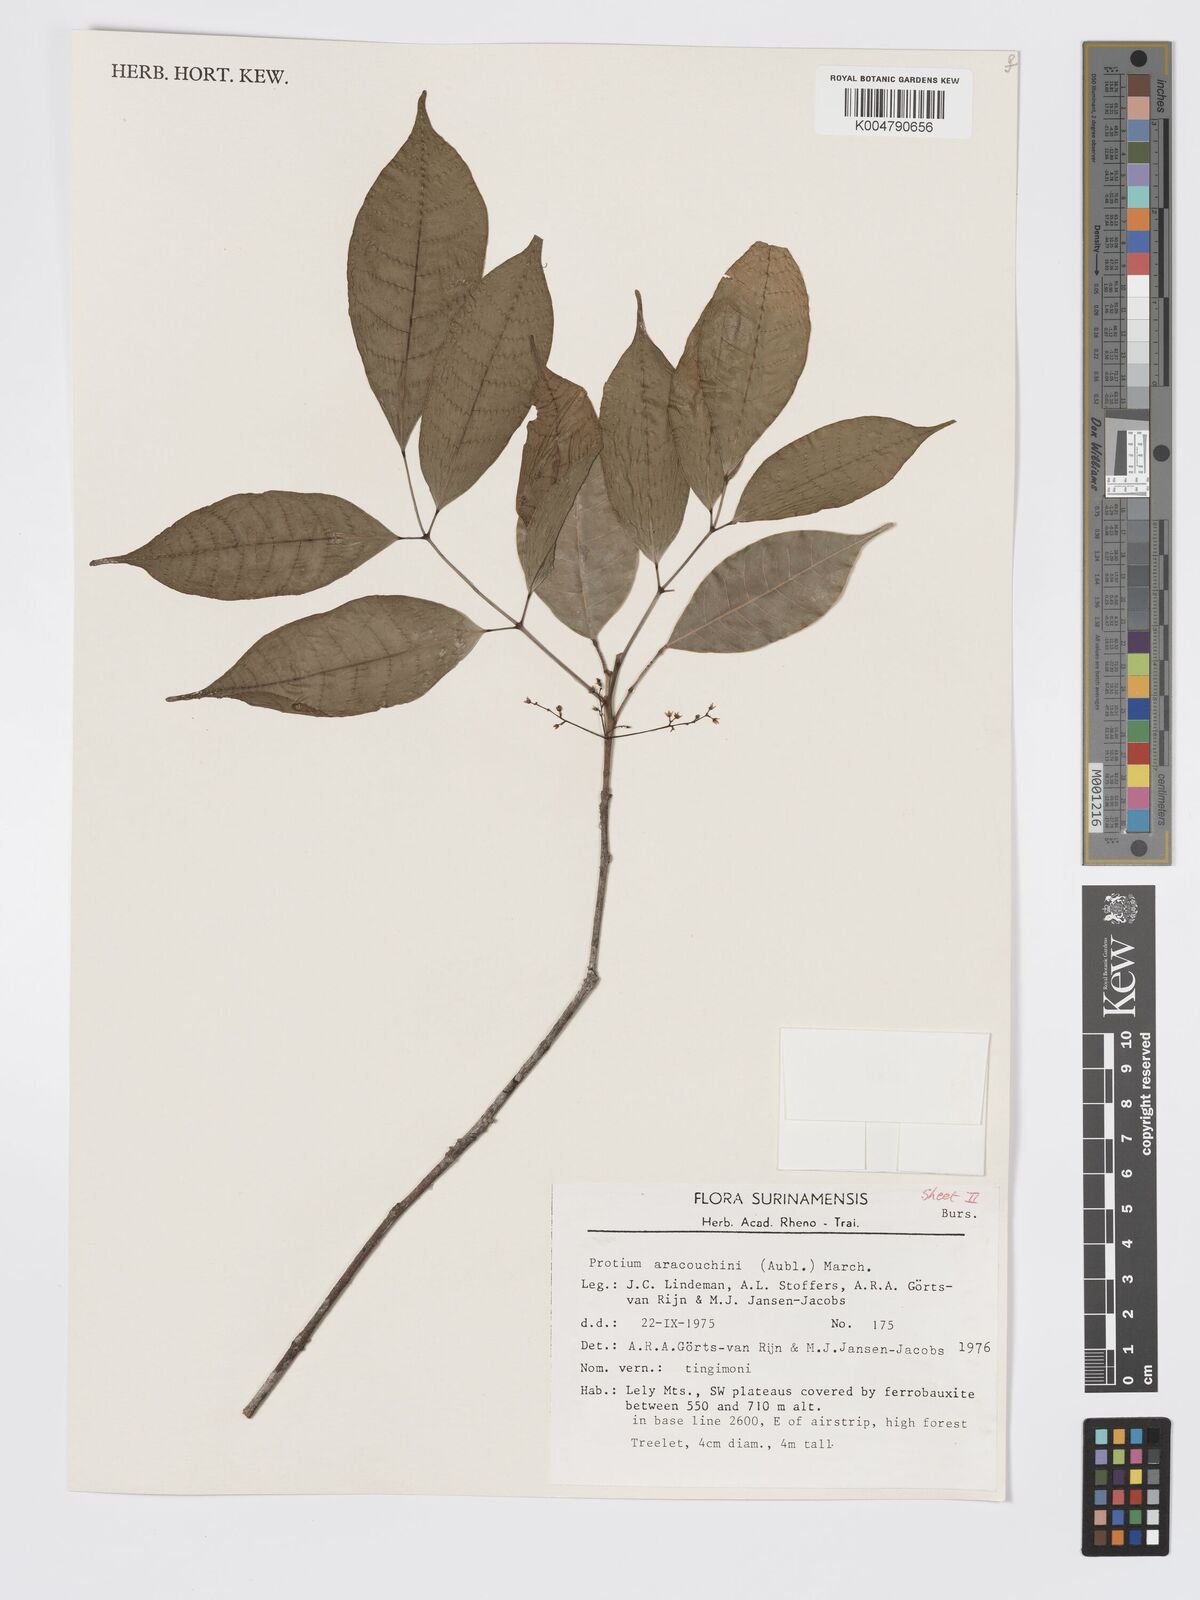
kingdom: Plantae
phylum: Tracheophyta
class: Magnoliopsida
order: Sapindales
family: Burseraceae
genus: Protium
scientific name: Protium aracouchini
